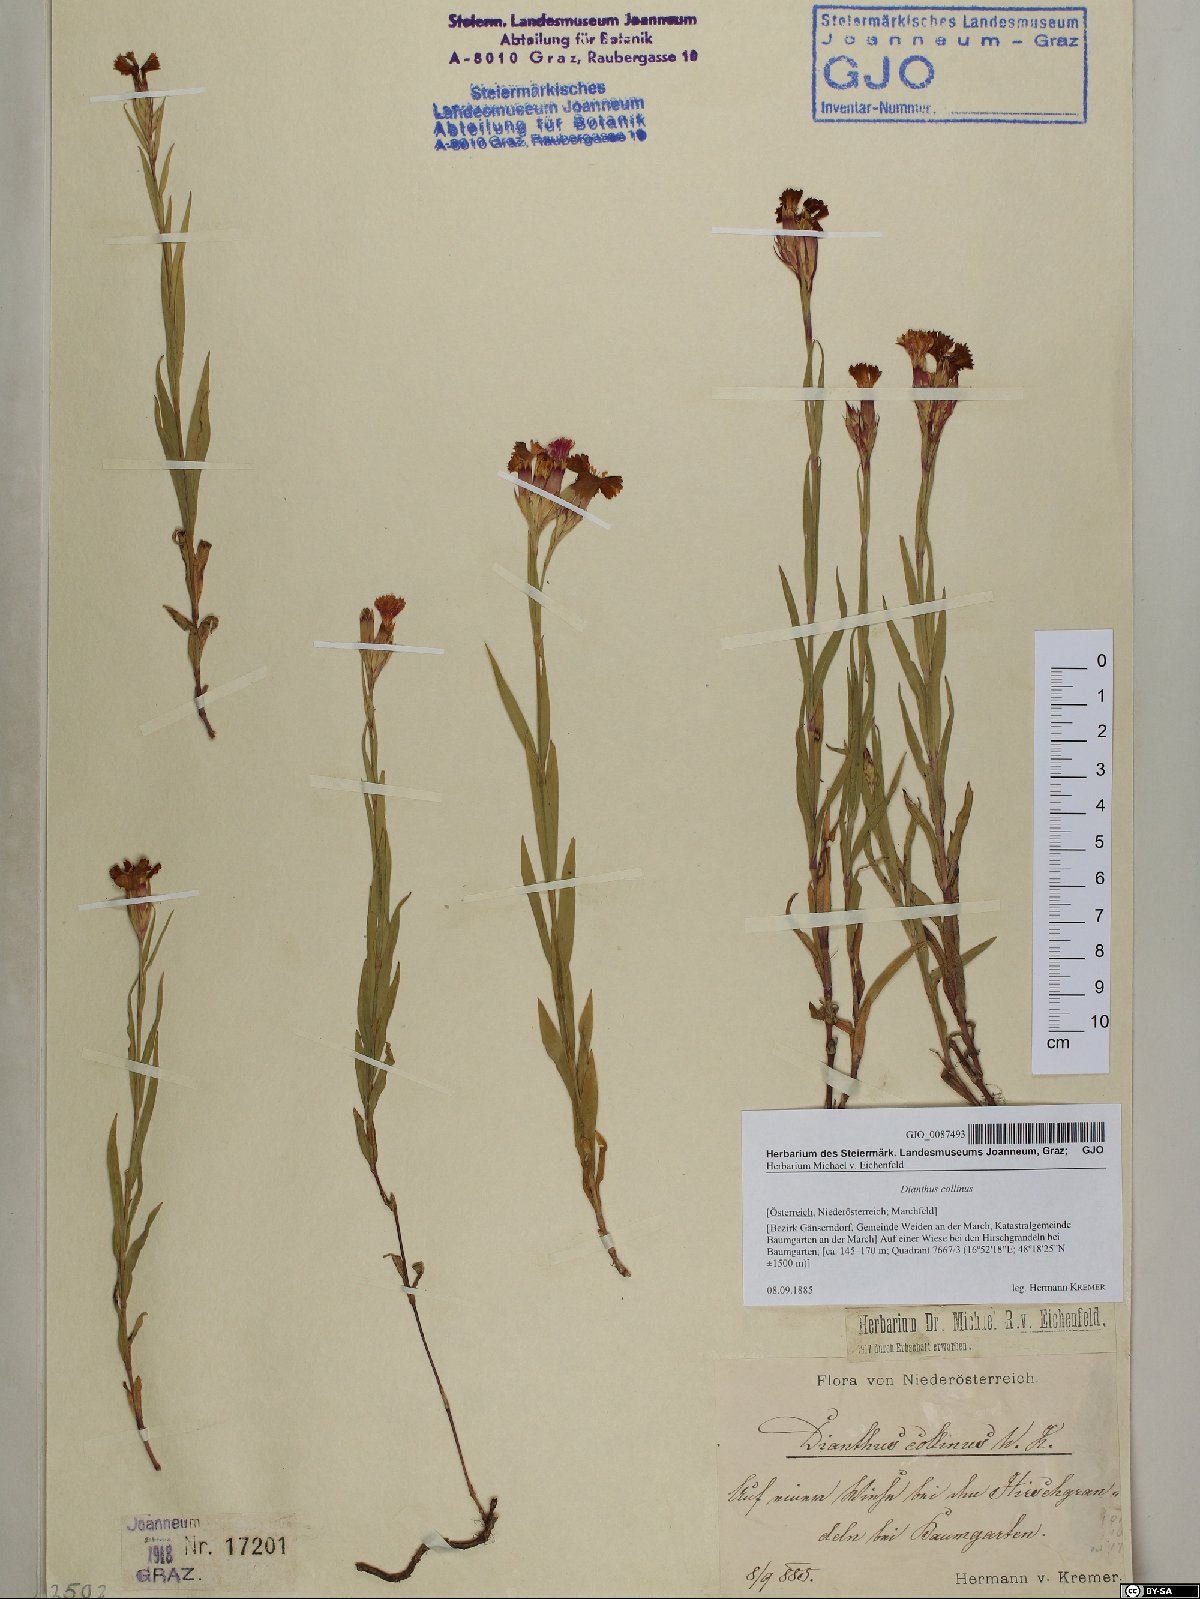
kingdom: Plantae
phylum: Tracheophyta
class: Magnoliopsida
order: Caryophyllales
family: Caryophyllaceae
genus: Dianthus
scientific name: Dianthus collinus
